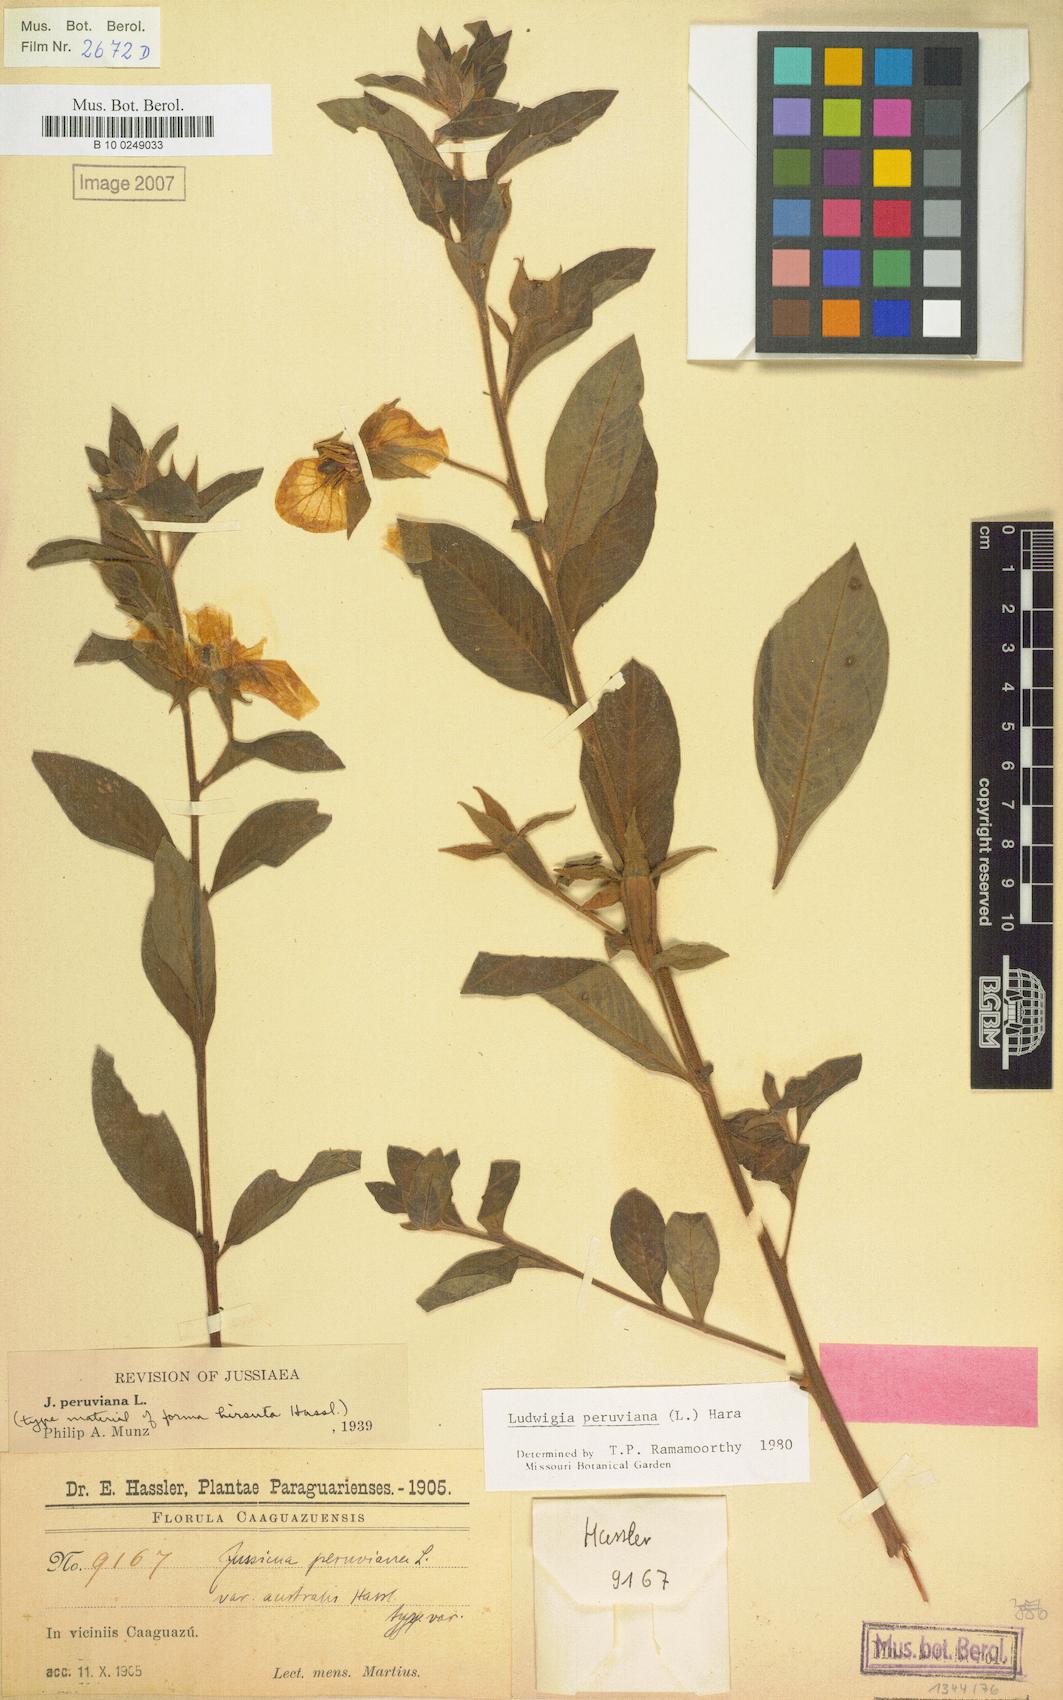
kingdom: Plantae
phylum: Tracheophyta
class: Magnoliopsida
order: Myrtales
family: Onagraceae
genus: Ludwigia
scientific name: Ludwigia peruviana
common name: Peruvian primrose-willow
